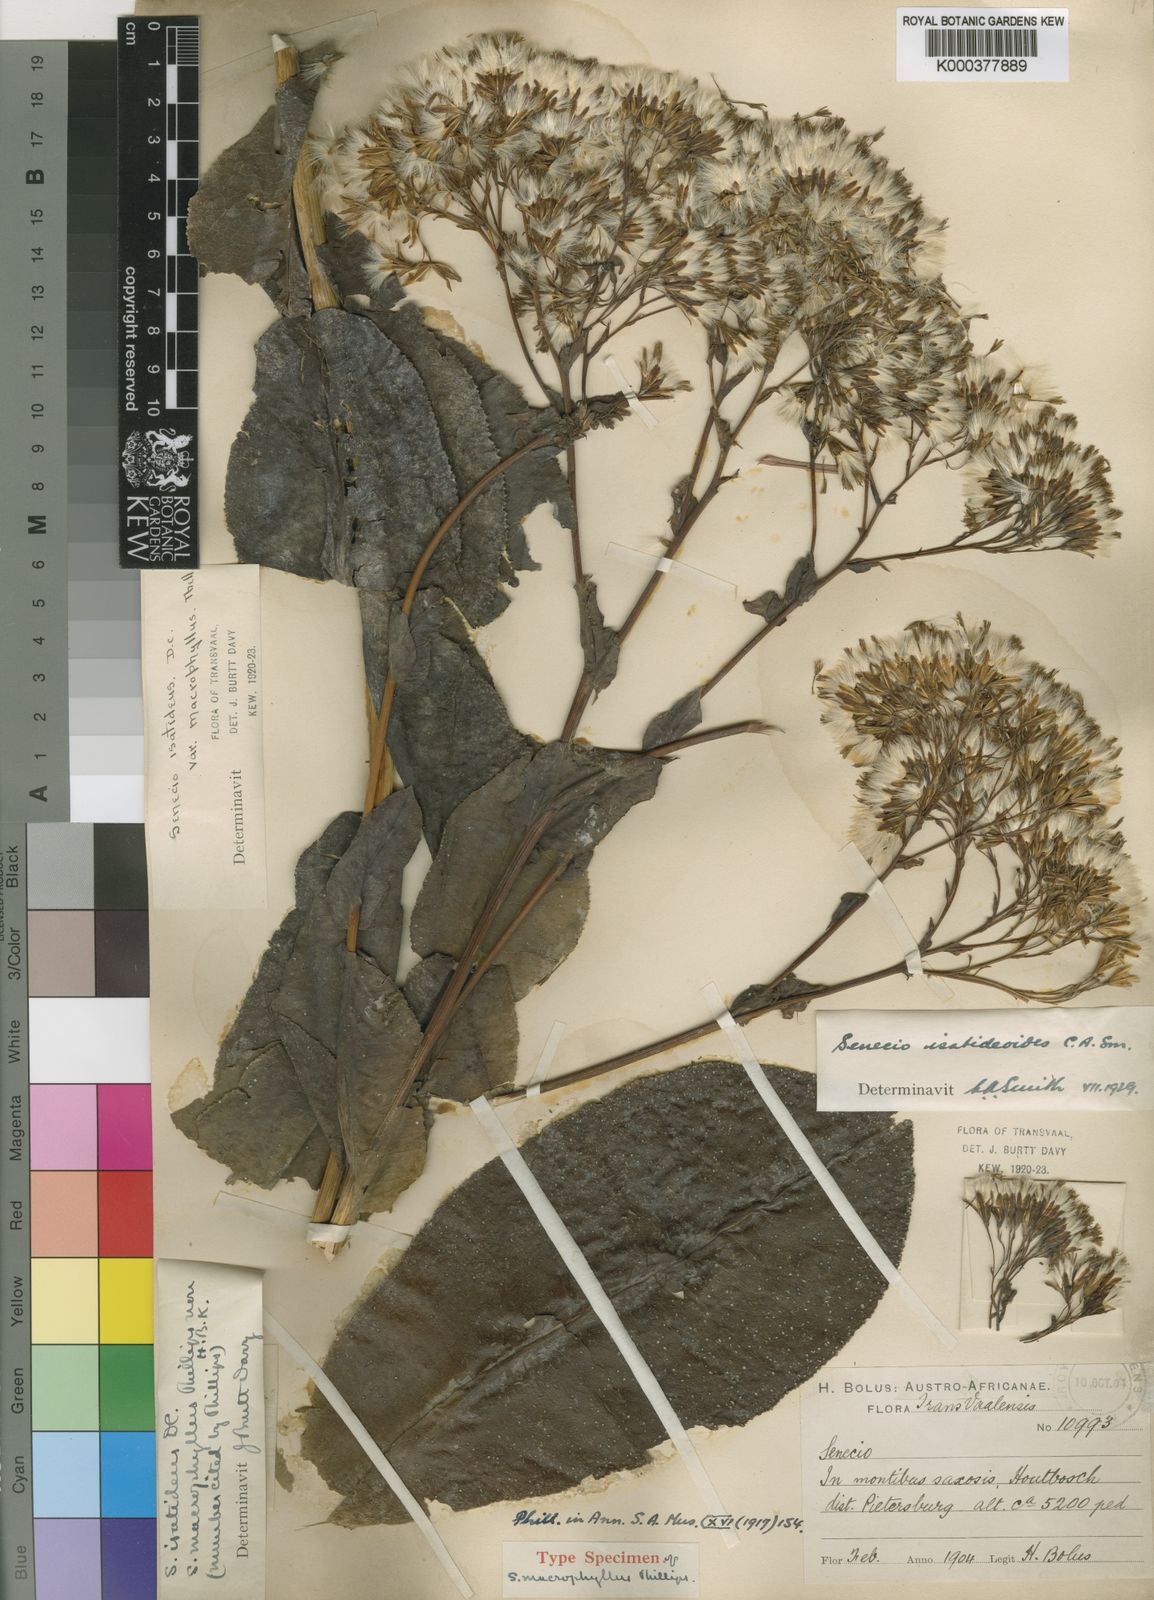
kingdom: Plantae
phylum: Tracheophyta
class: Magnoliopsida
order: Asterales
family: Asteraceae
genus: Senecio
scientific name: Senecio isatidoides
